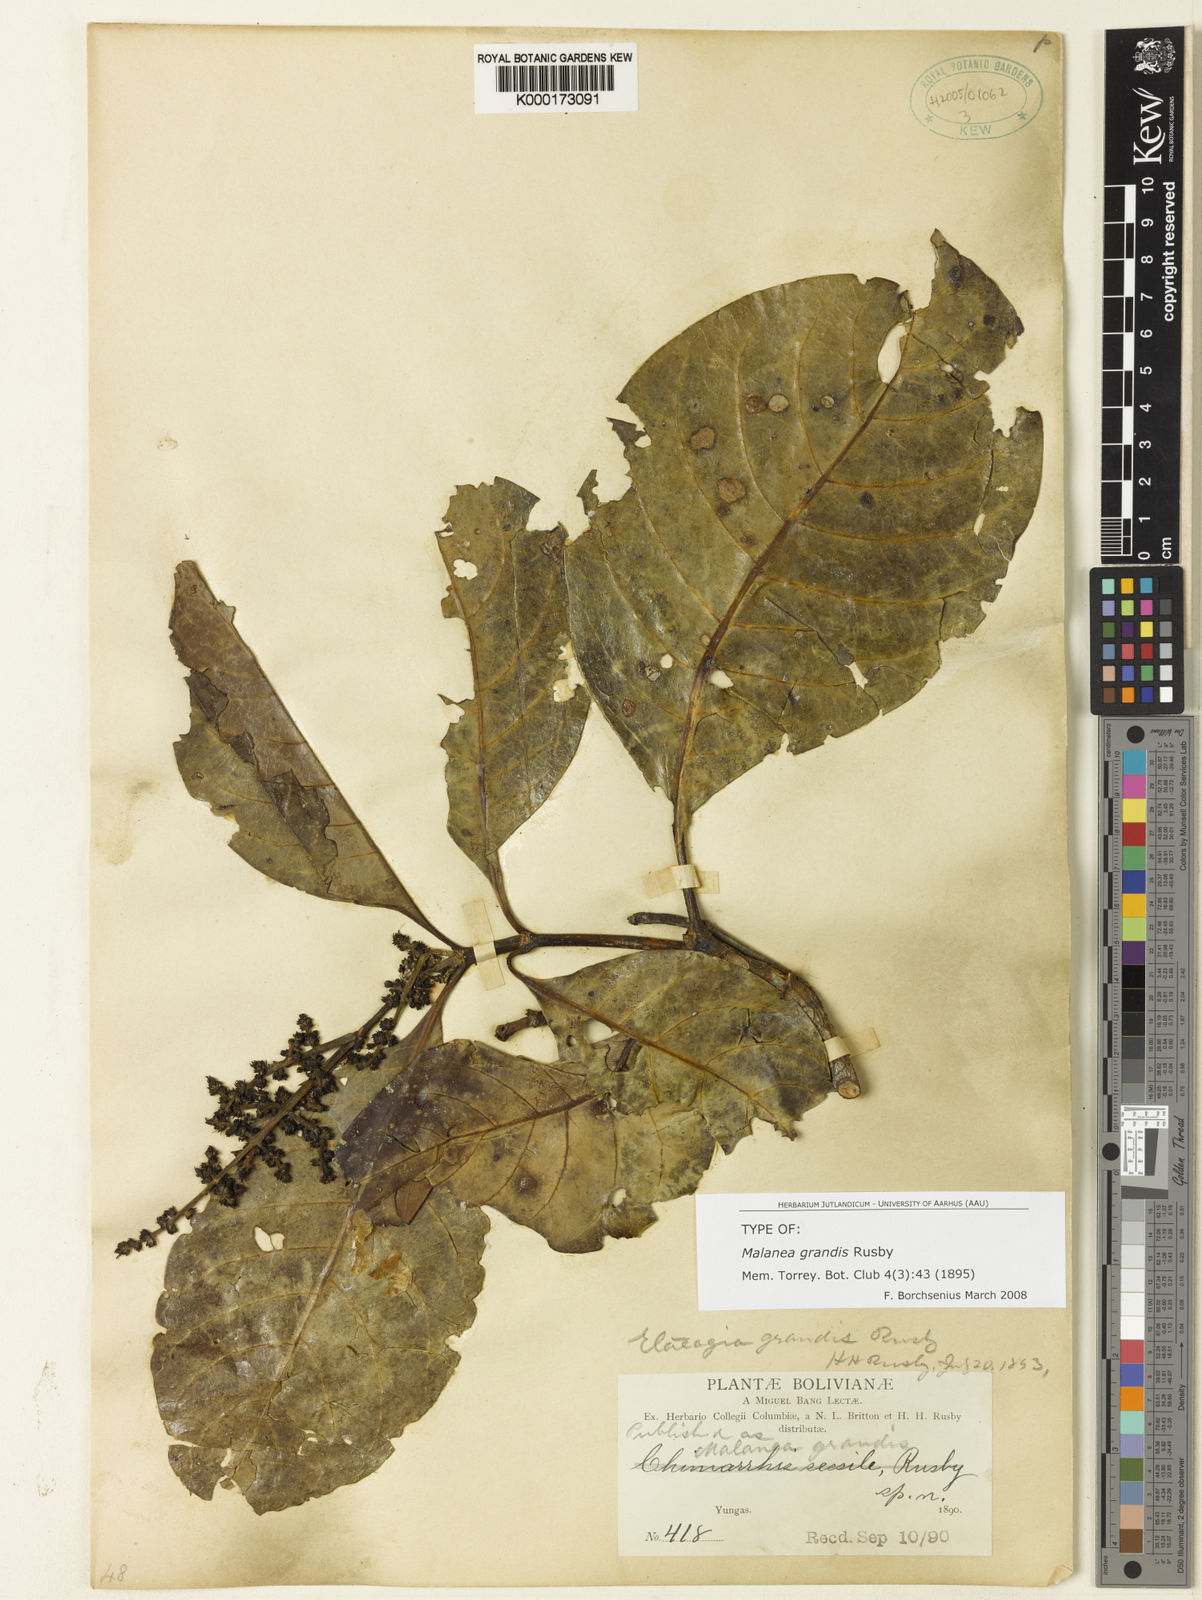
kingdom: Plantae
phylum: Tracheophyta
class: Magnoliopsida
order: Gentianales
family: Rubiaceae
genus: Elaeagia
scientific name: Elaeagia grandis
